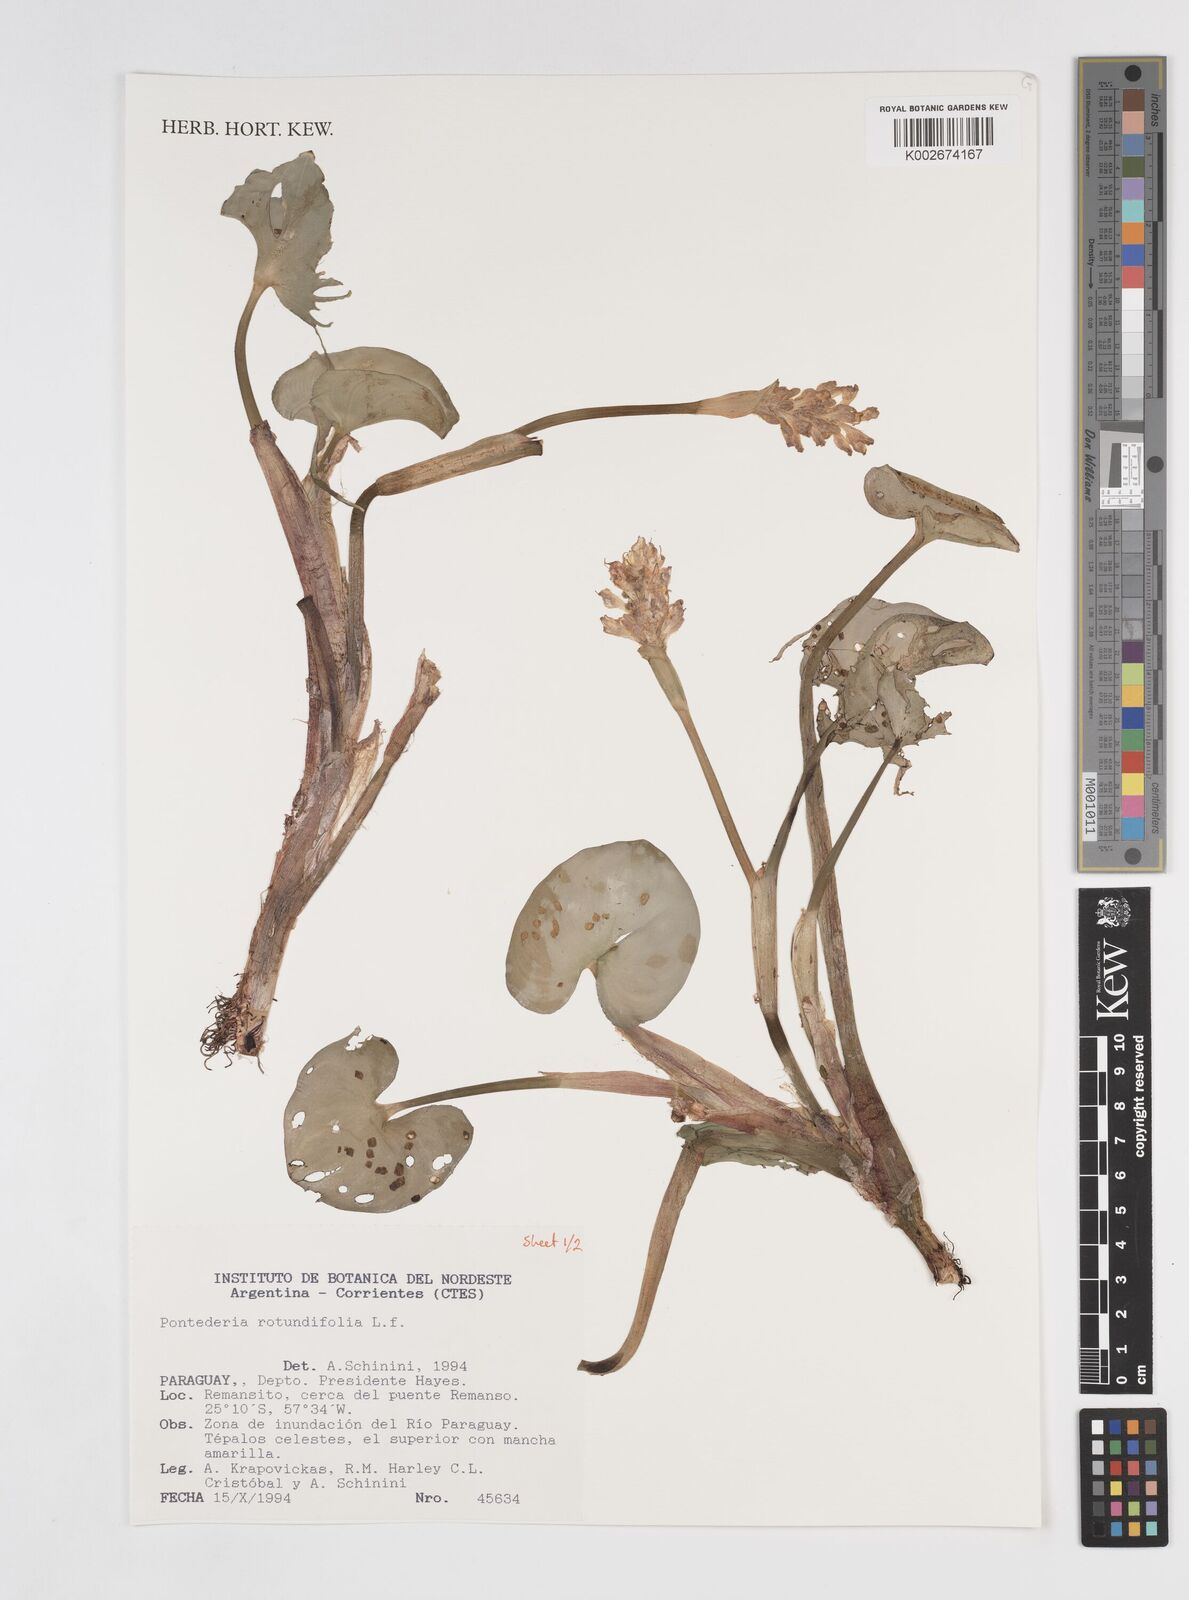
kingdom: Plantae
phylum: Tracheophyta
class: Liliopsida
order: Commelinales
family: Pontederiaceae
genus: Pontederia
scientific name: Pontederia rotundifolia
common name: Tropical pickerel-weed
